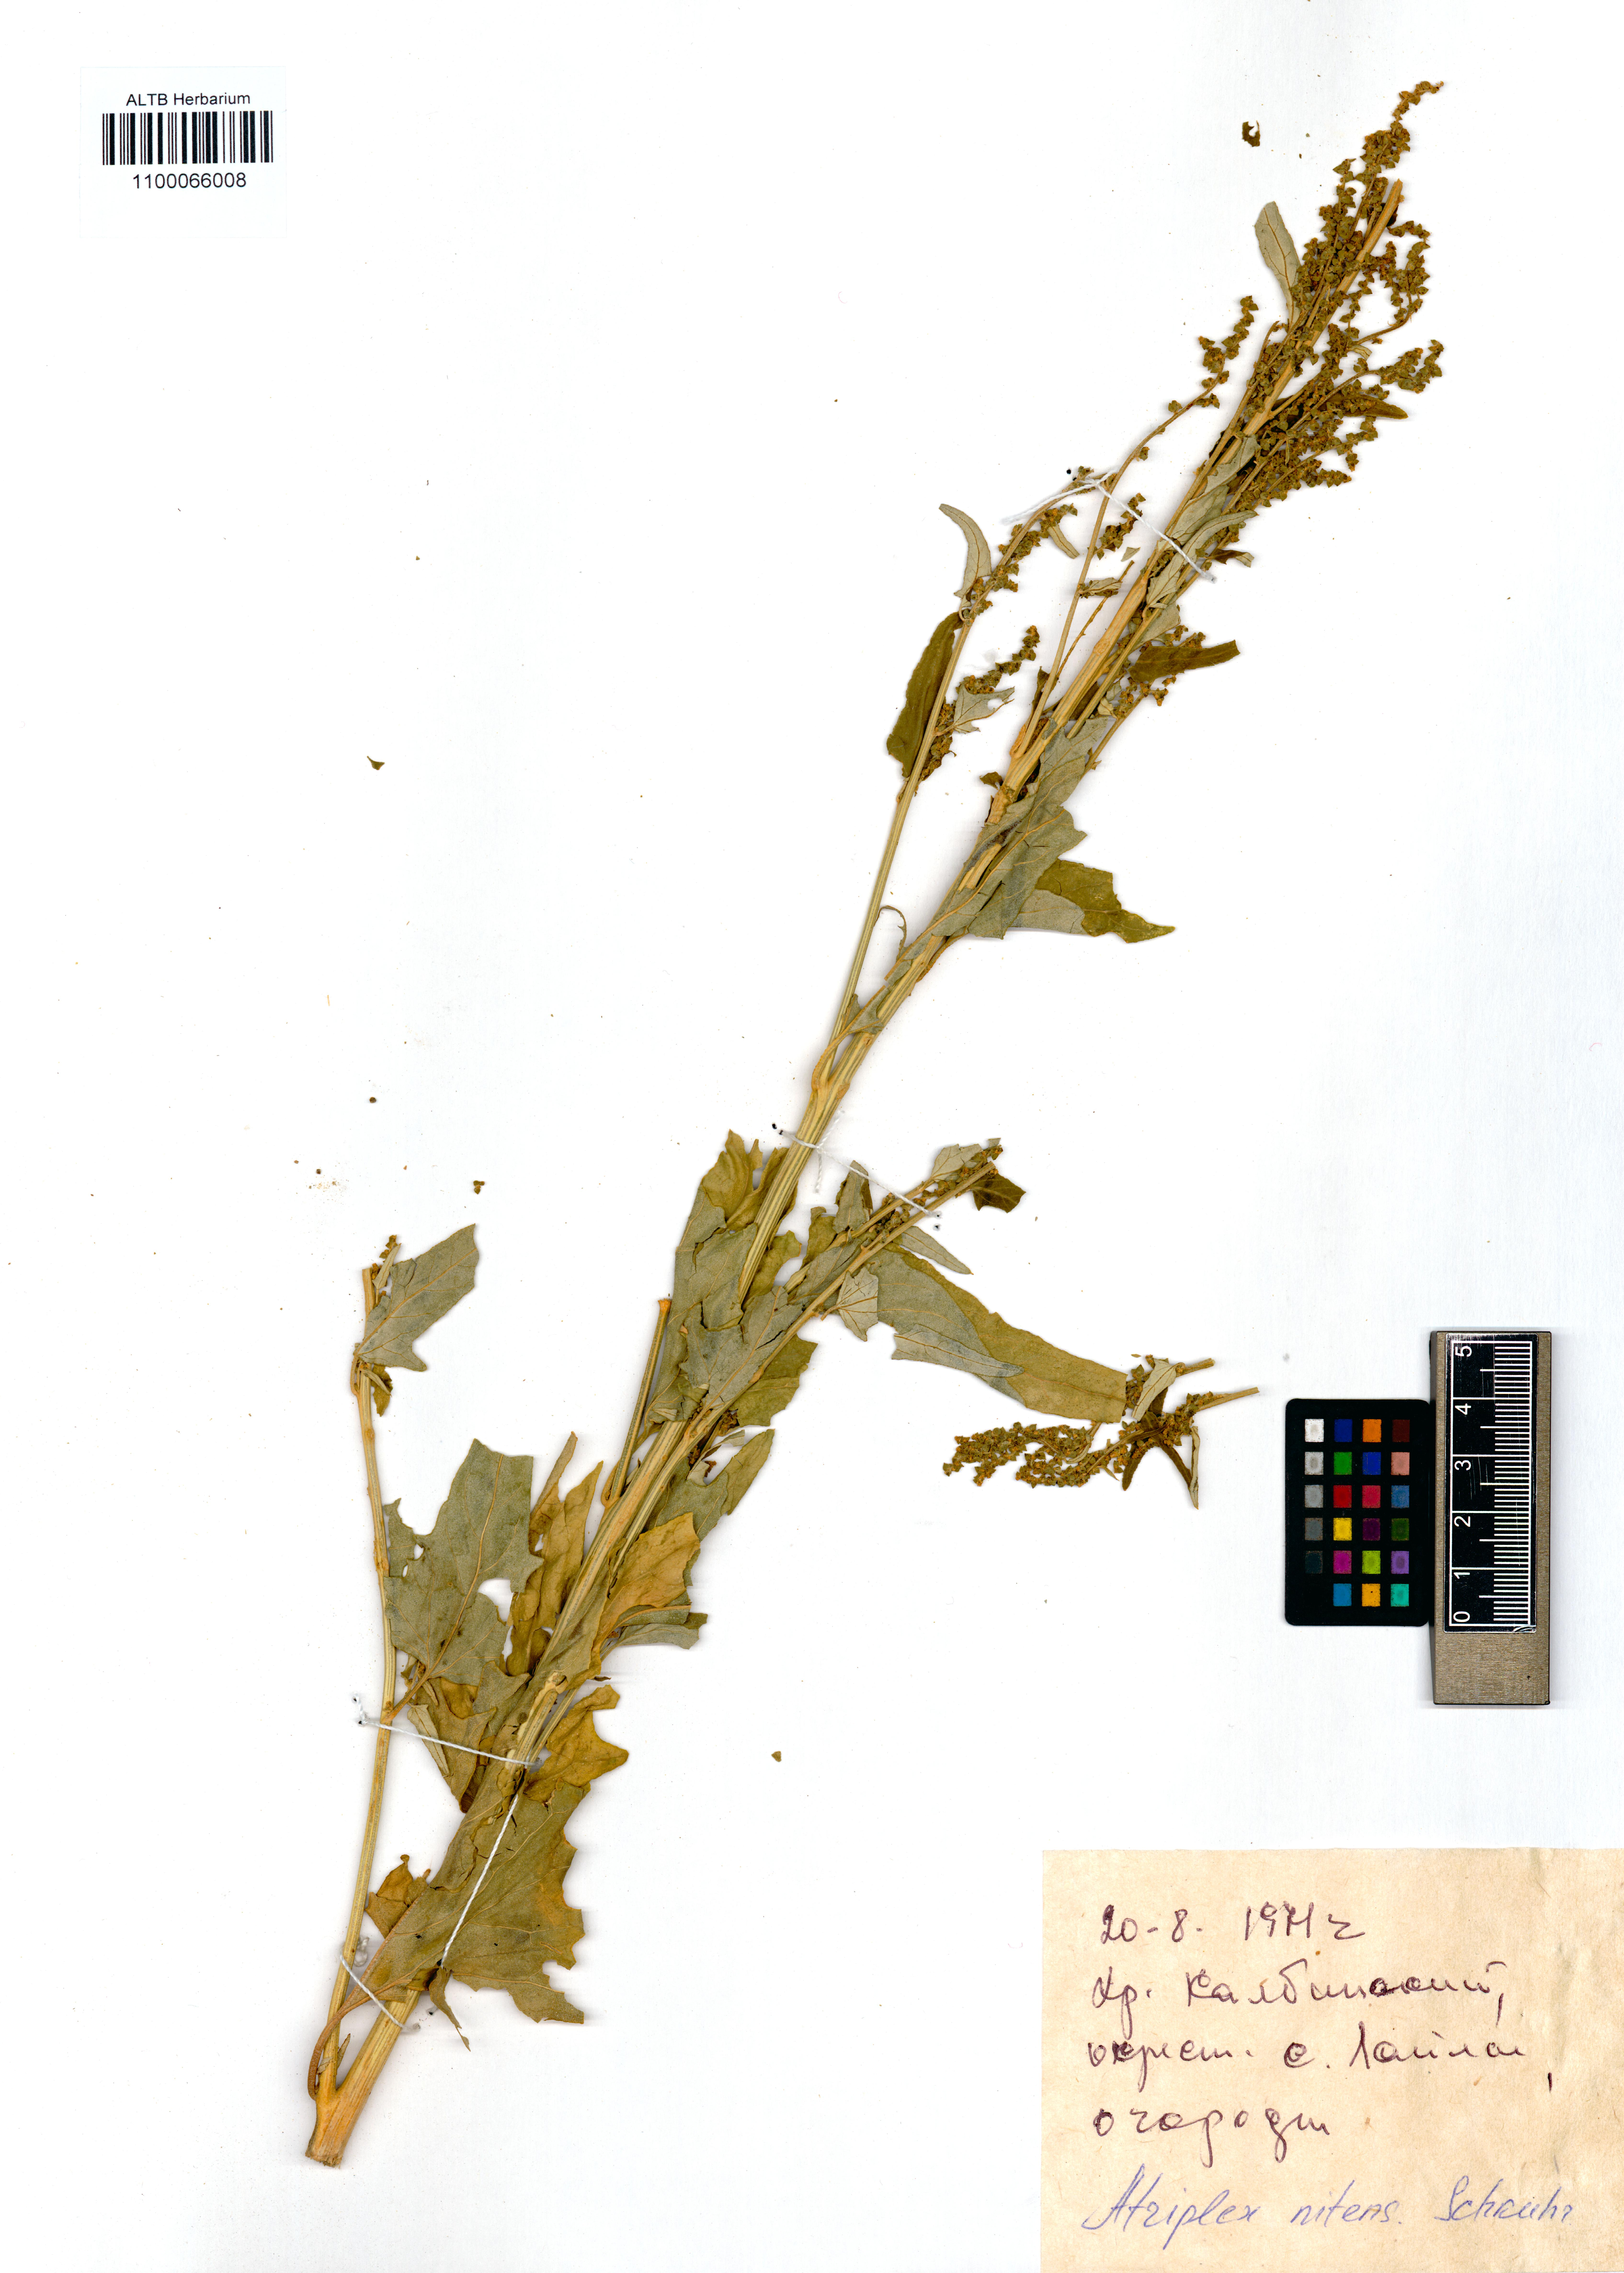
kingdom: Plantae
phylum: Tracheophyta
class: Magnoliopsida
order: Caryophyllales
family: Amaranthaceae
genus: Atriplex
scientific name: Atriplex sagittata
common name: Purple orache
